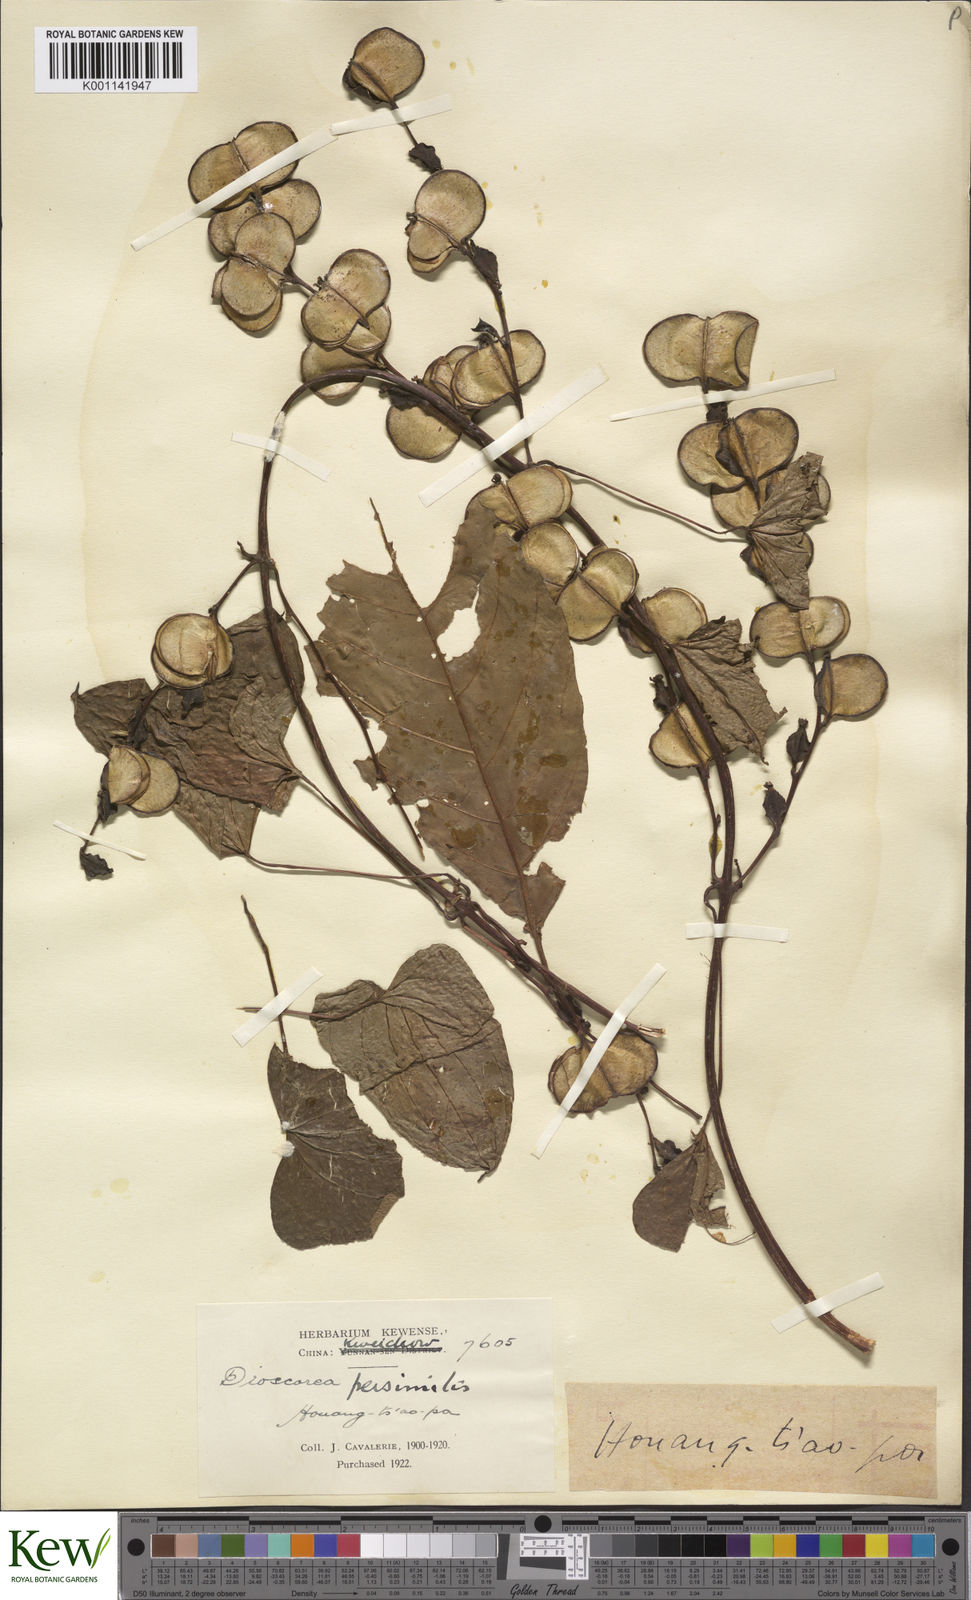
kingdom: Plantae
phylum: Tracheophyta
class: Liliopsida
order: Dioscoreales
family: Dioscoreaceae
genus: Dioscorea
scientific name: Dioscorea hamiltonii
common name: Mountain yam
